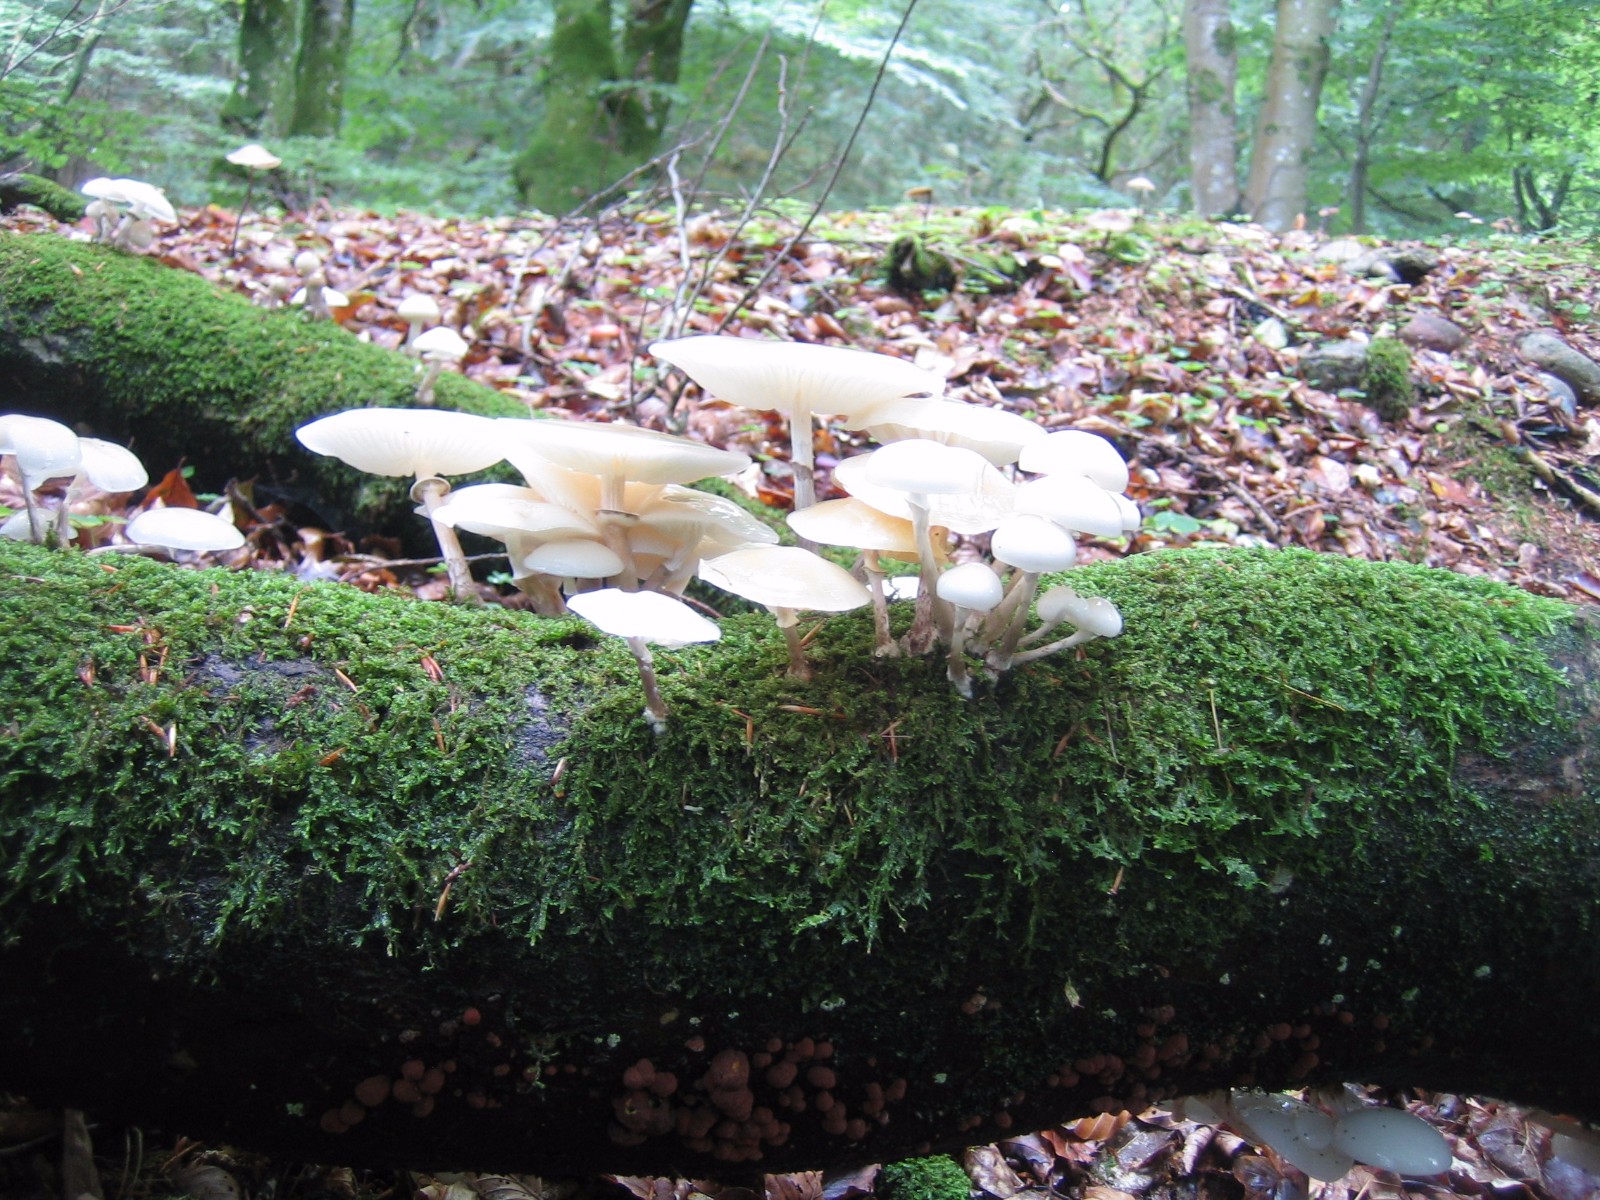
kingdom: Fungi
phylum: Basidiomycota
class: Agaricomycetes
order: Agaricales
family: Physalacriaceae
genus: Mucidula
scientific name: Mucidula mucida
